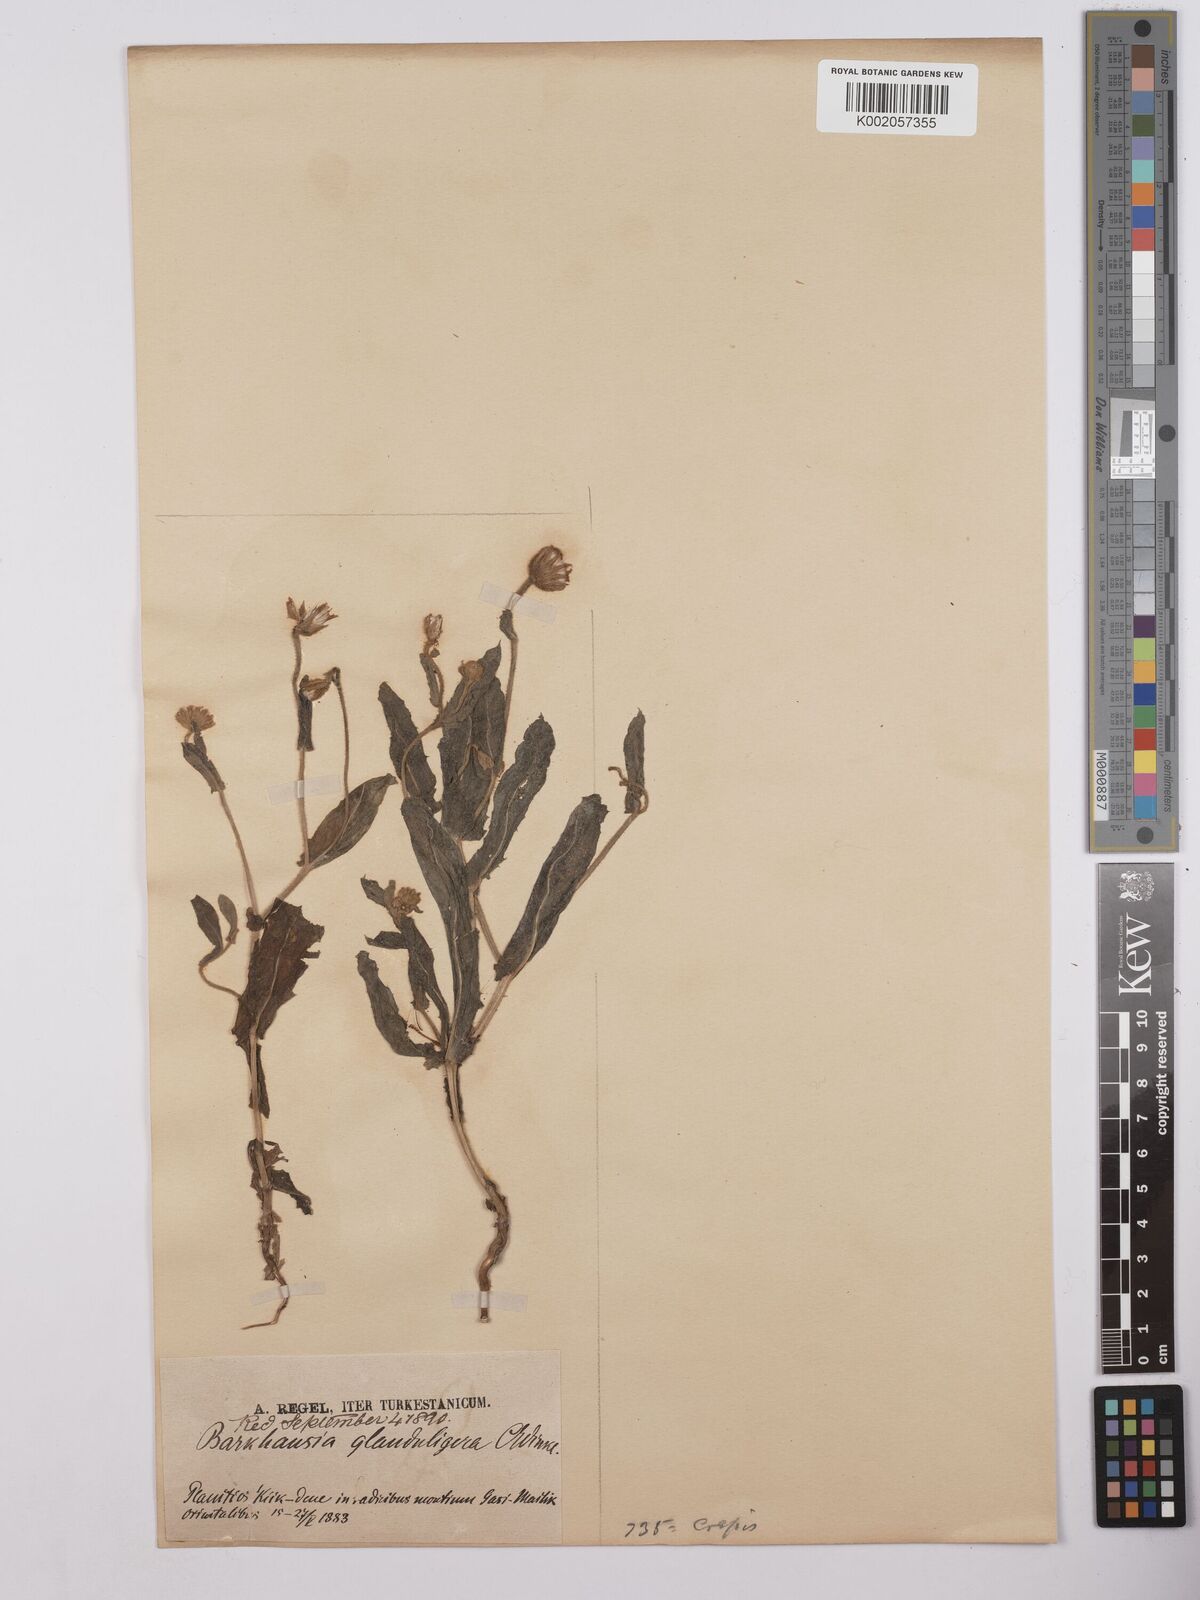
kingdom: Plantae
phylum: Tracheophyta
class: Magnoliopsida
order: Asterales
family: Asteraceae
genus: Crepis
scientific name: Crepis kotschyana
